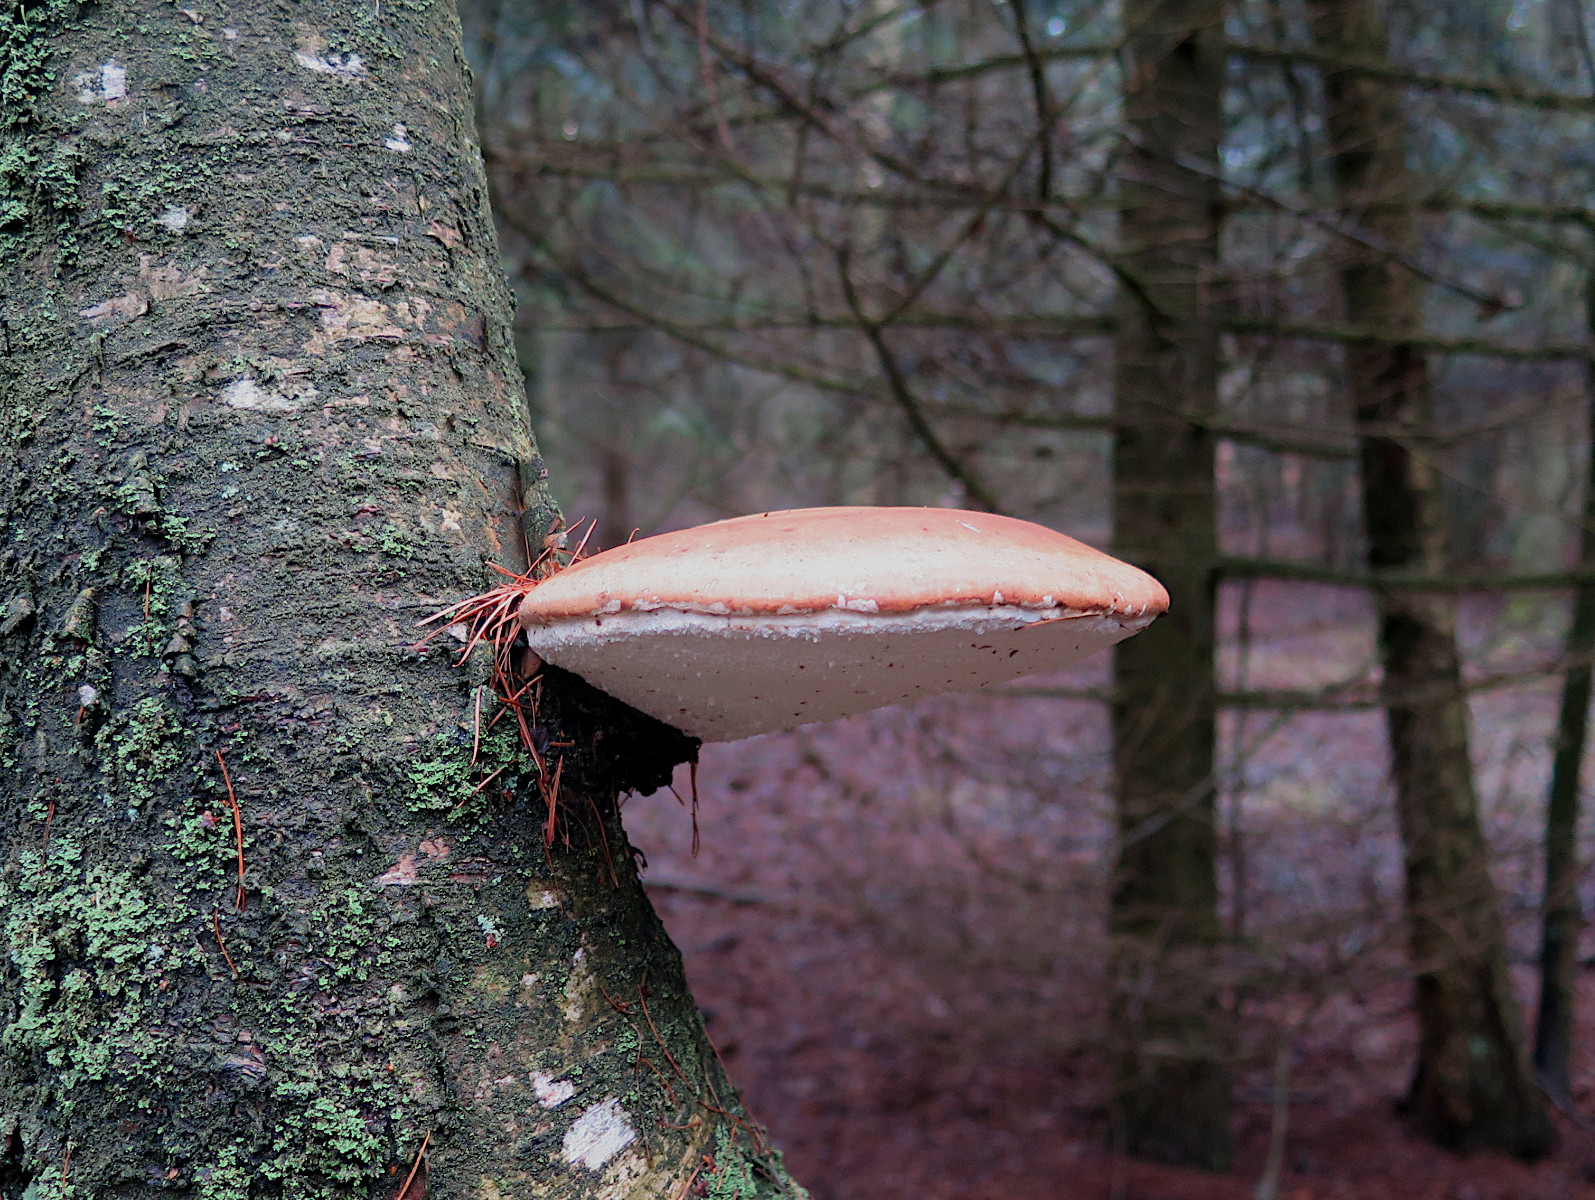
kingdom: Fungi
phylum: Basidiomycota
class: Agaricomycetes
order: Polyporales
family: Fomitopsidaceae
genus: Fomitopsis
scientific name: Fomitopsis betulina
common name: birkeporesvamp
